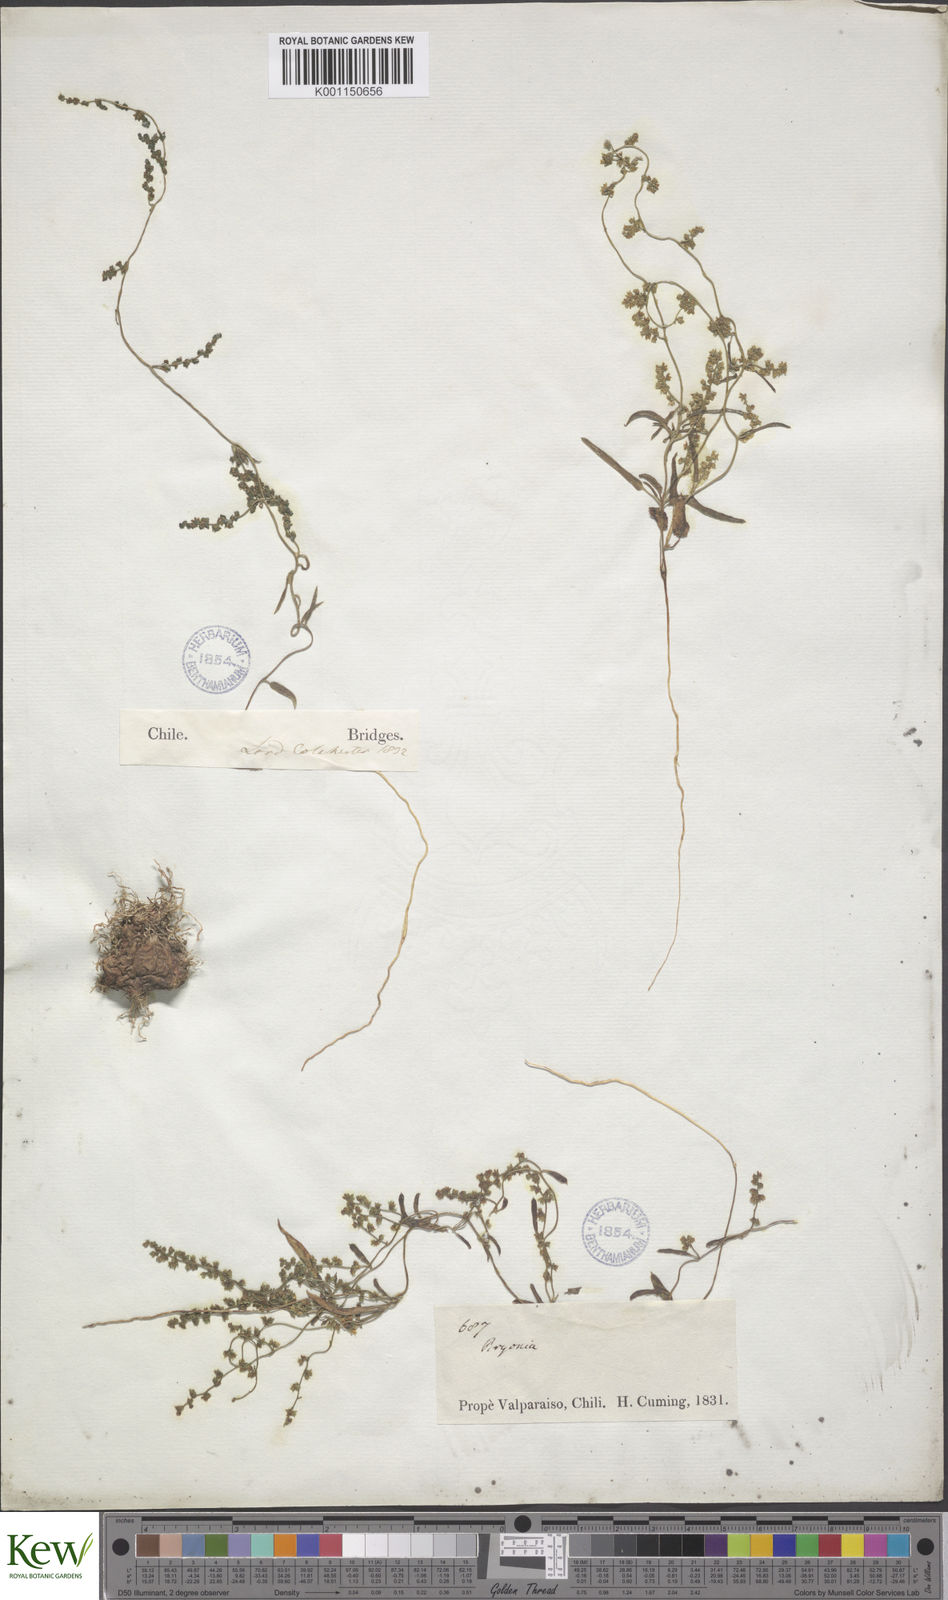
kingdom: Plantae
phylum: Tracheophyta
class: Liliopsida
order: Dioscoreales
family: Dioscoreaceae
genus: Dioscorea
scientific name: Dioscorea saxatilis
